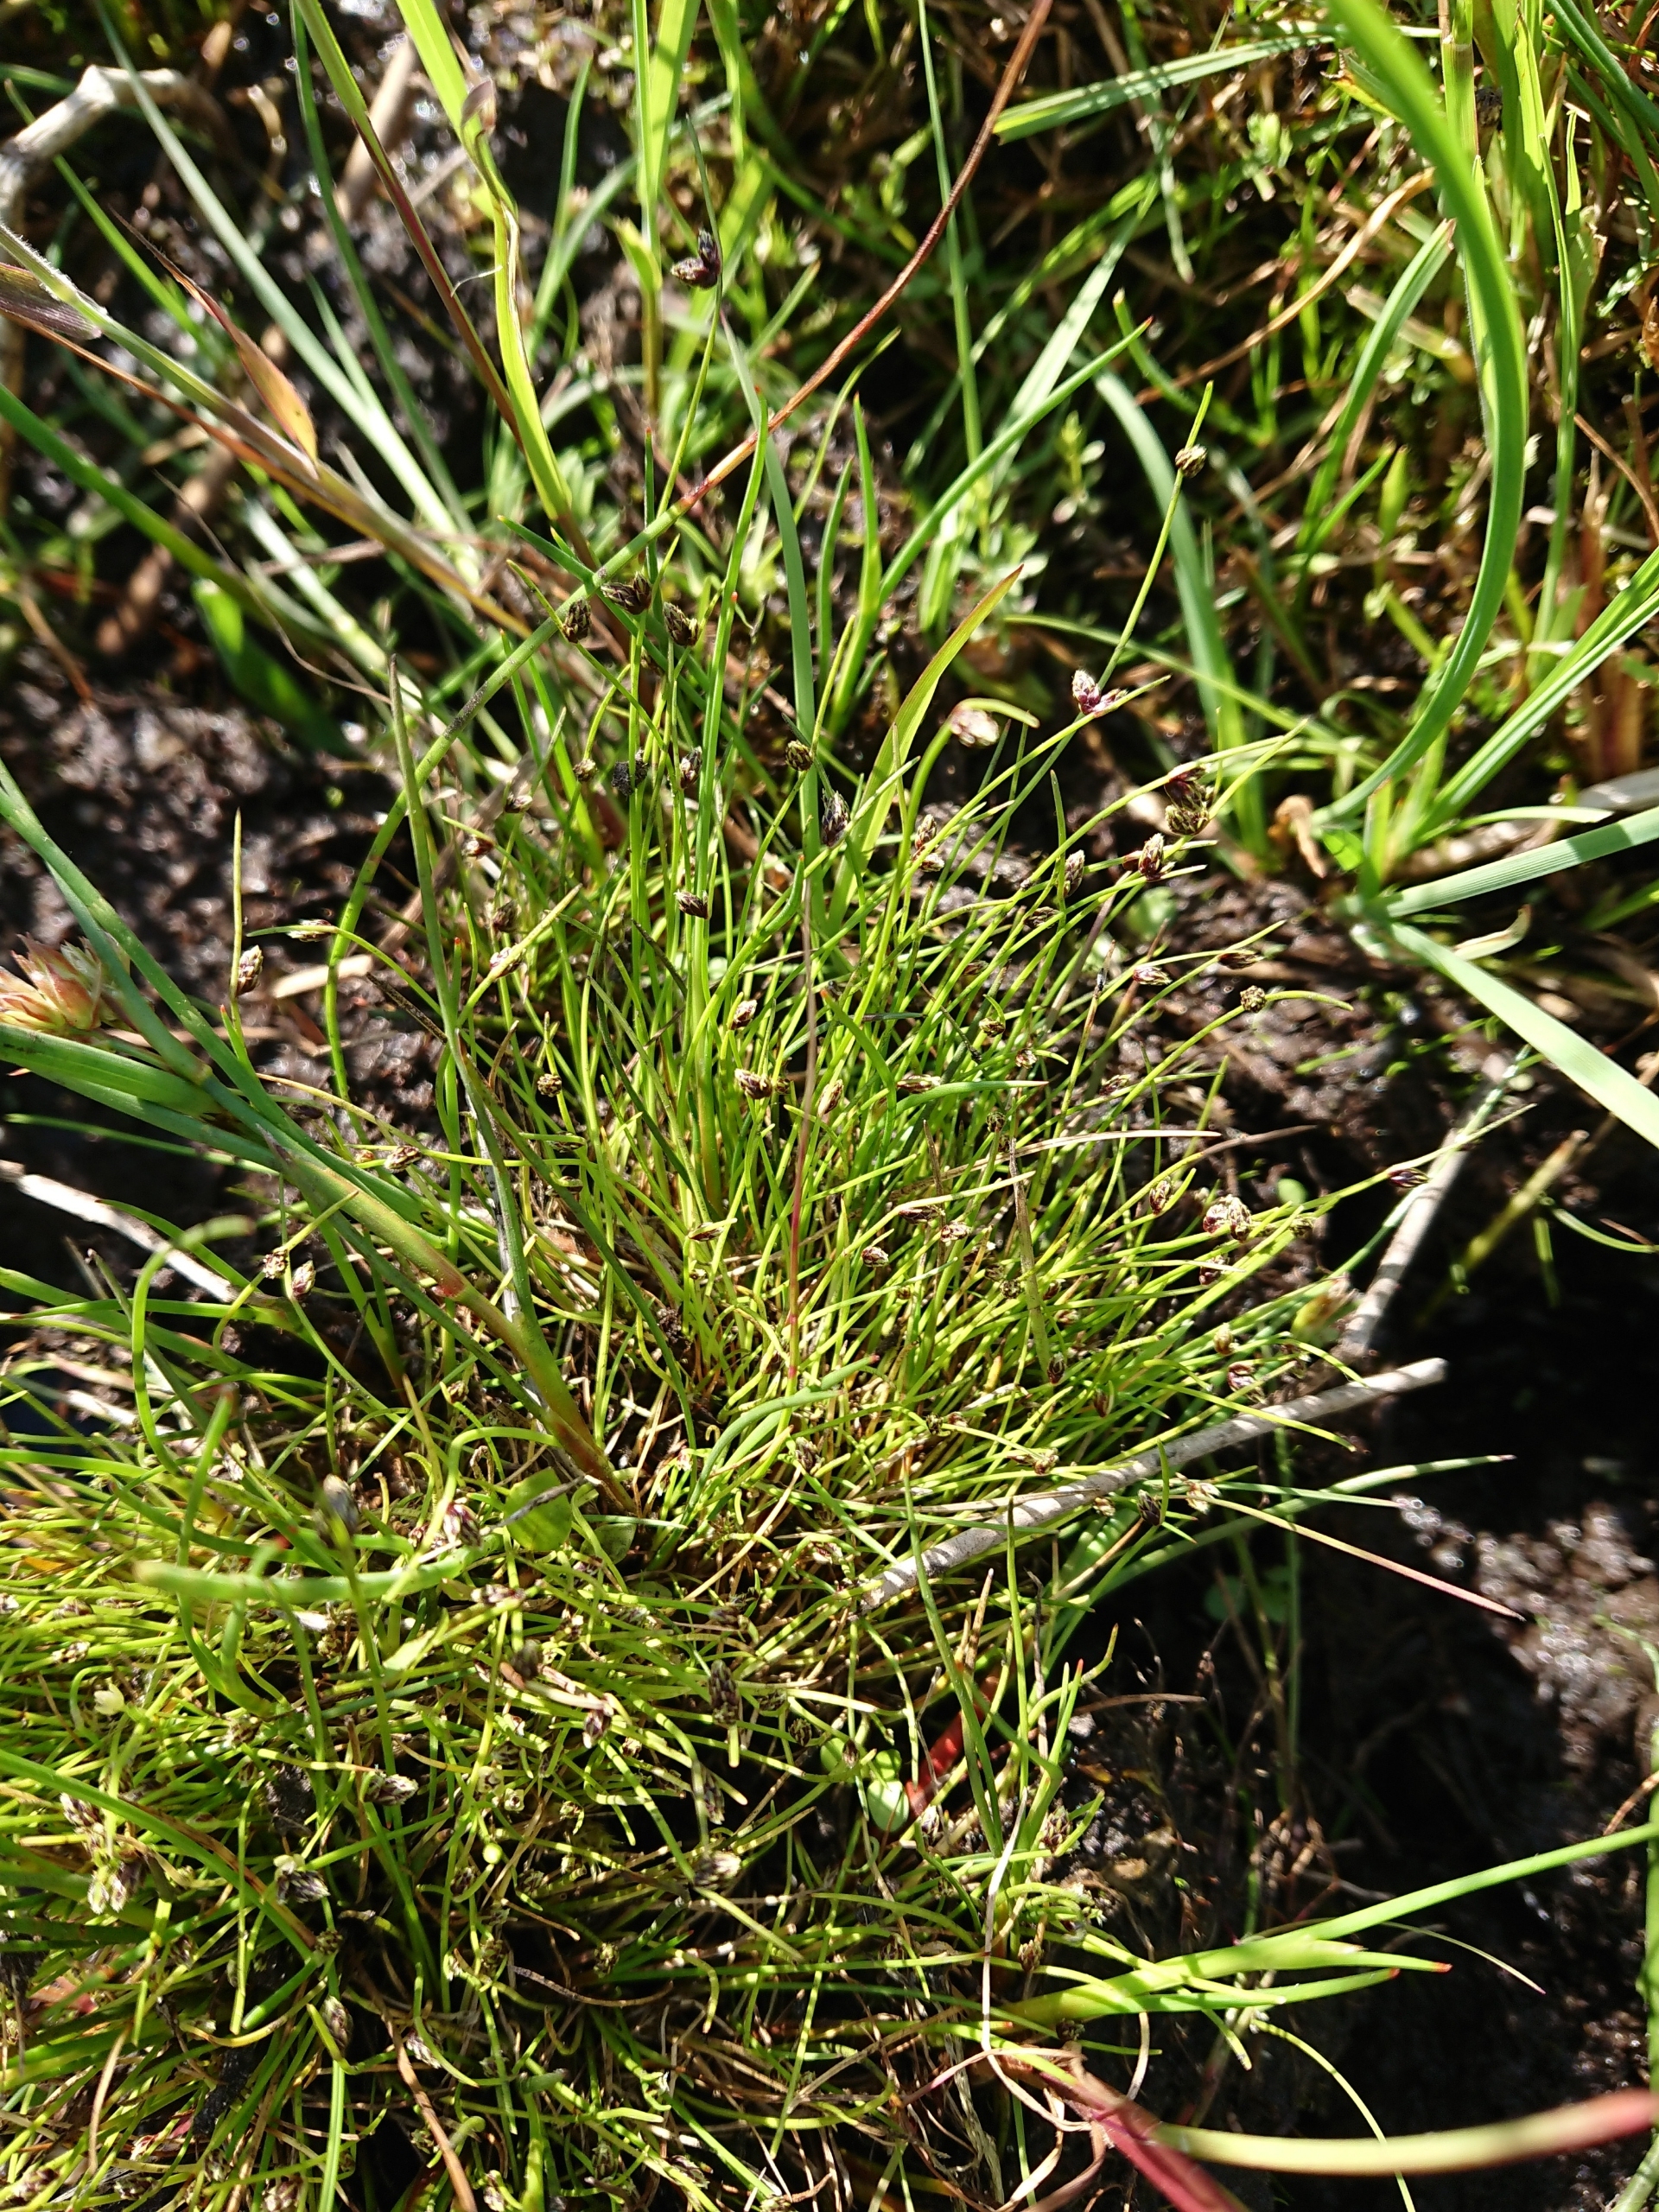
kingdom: Plantae
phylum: Tracheophyta
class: Liliopsida
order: Poales
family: Cyperaceae
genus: Isolepis
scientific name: Isolepis setacea
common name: Børste-kogleaks
